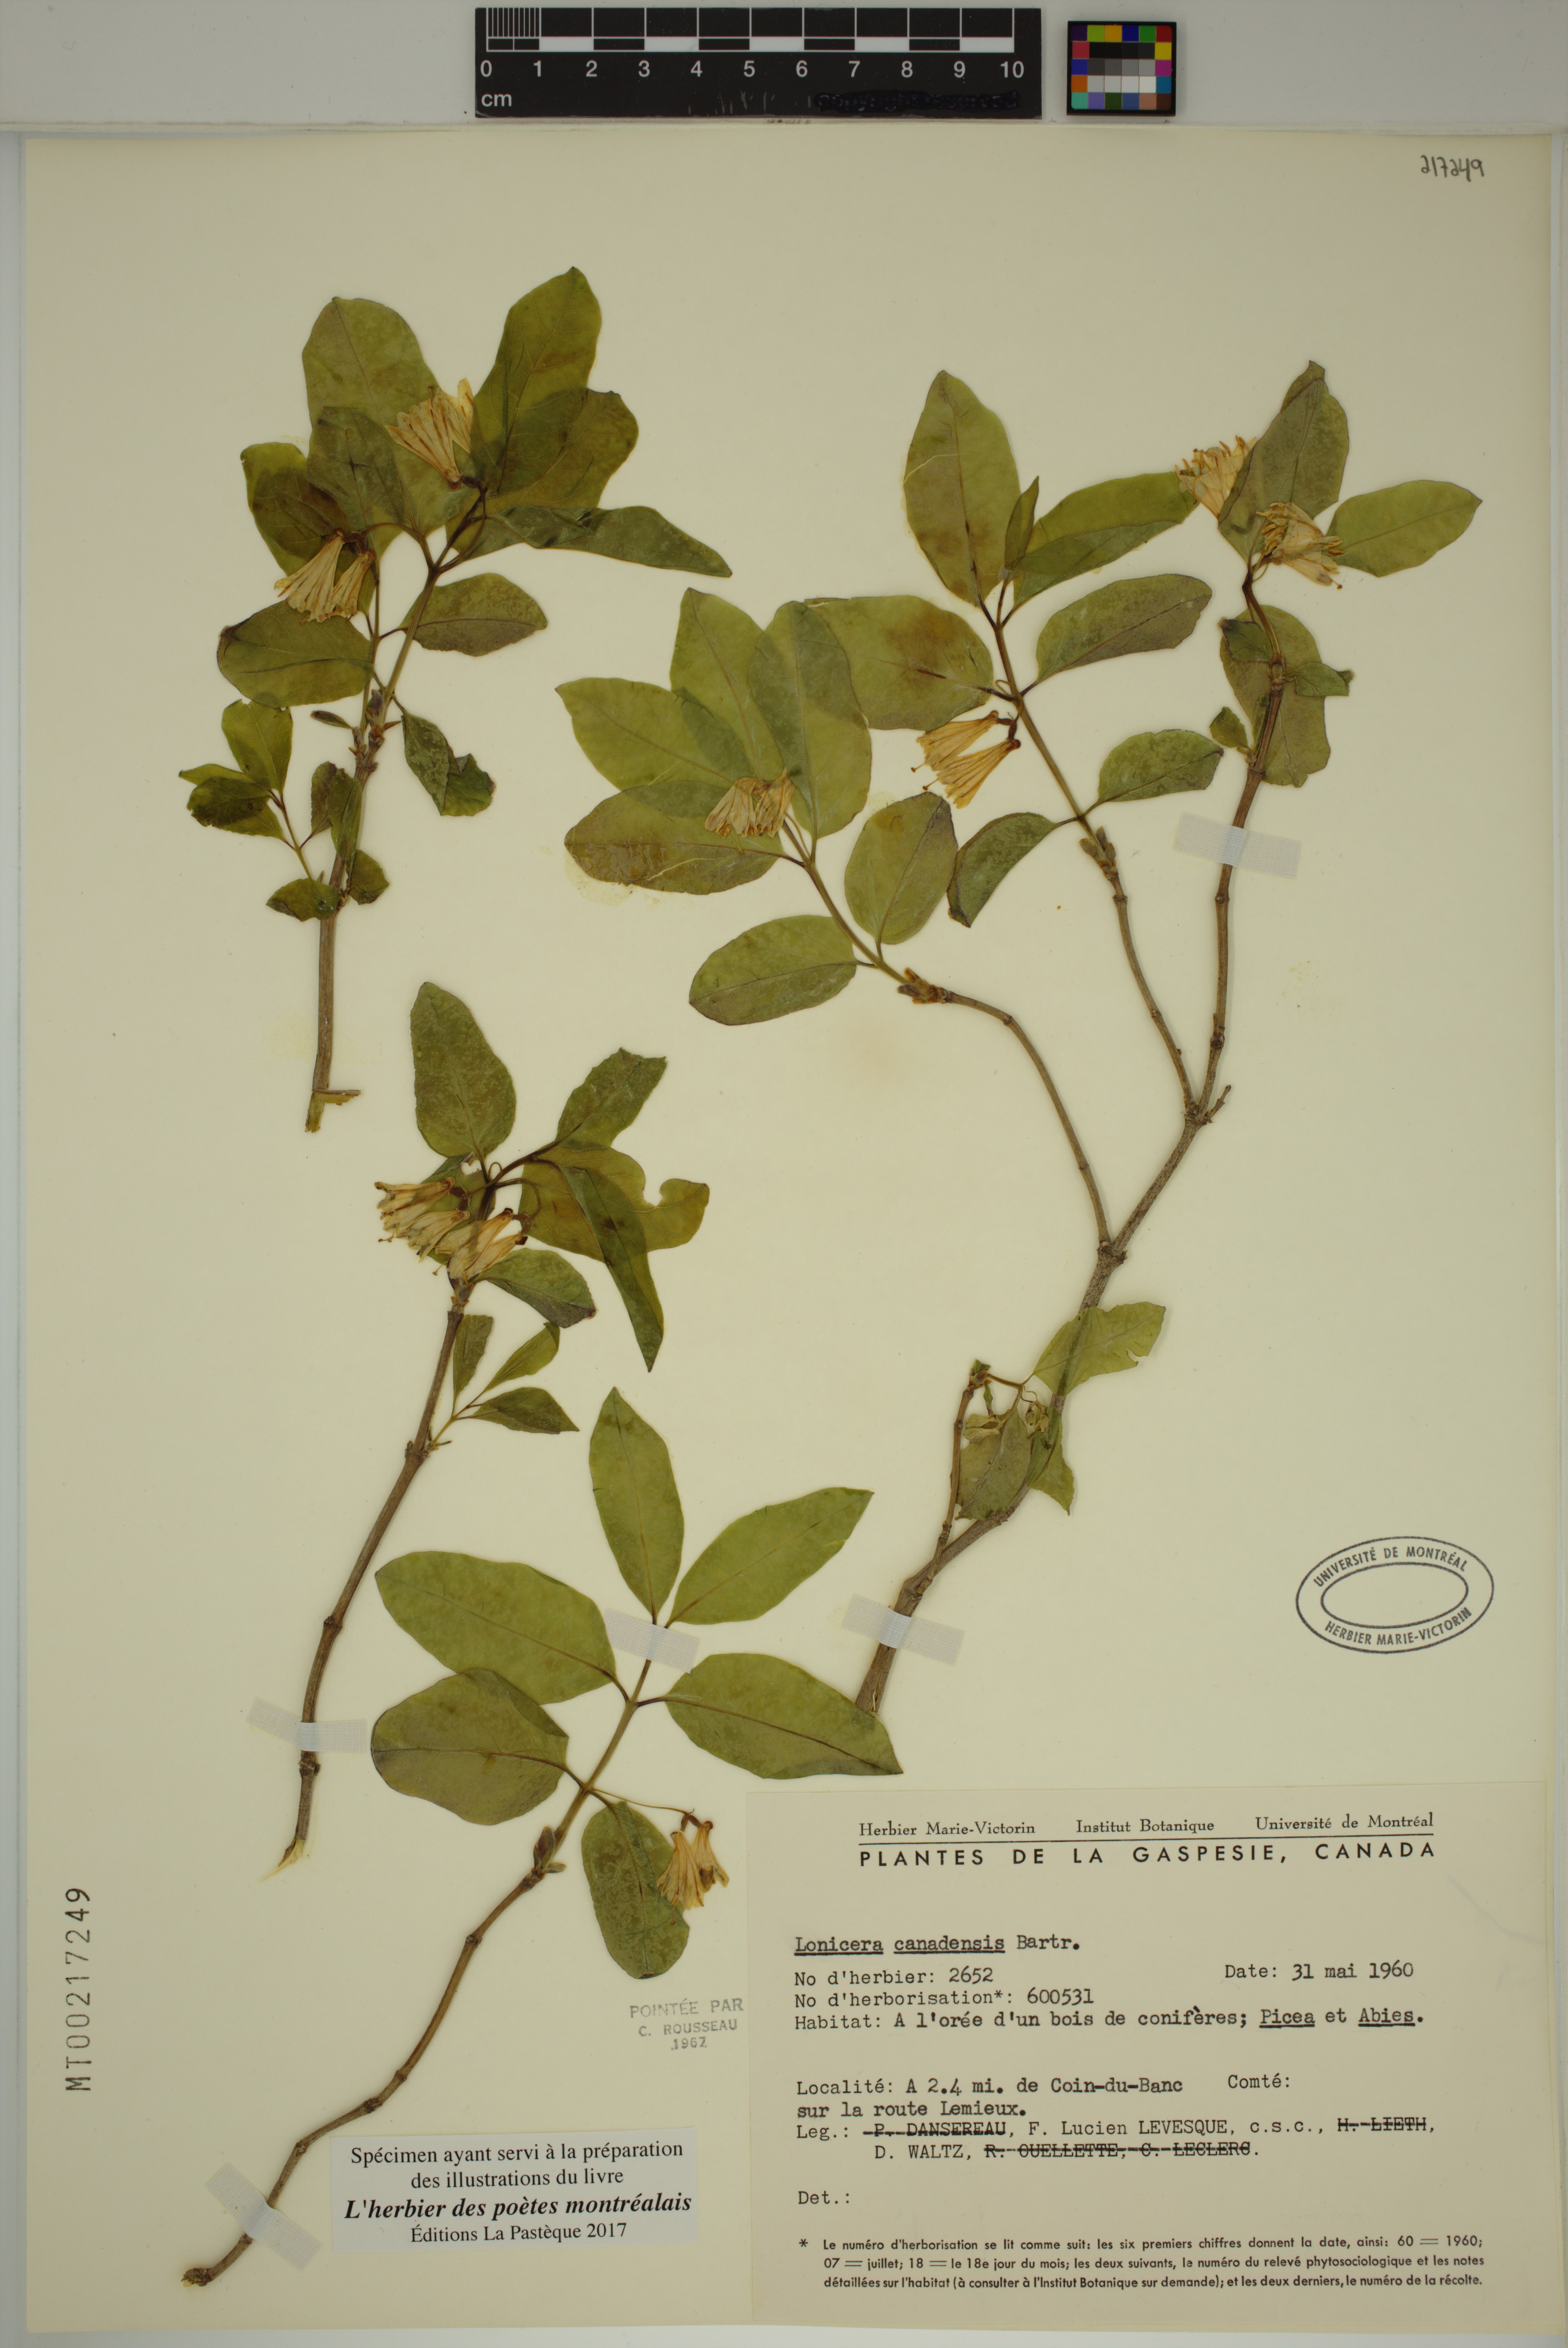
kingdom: Plantae
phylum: Tracheophyta
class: Magnoliopsida
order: Dipsacales
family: Caprifoliaceae
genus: Lonicera
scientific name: Lonicera canadensis
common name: American fly-honeysuckle
